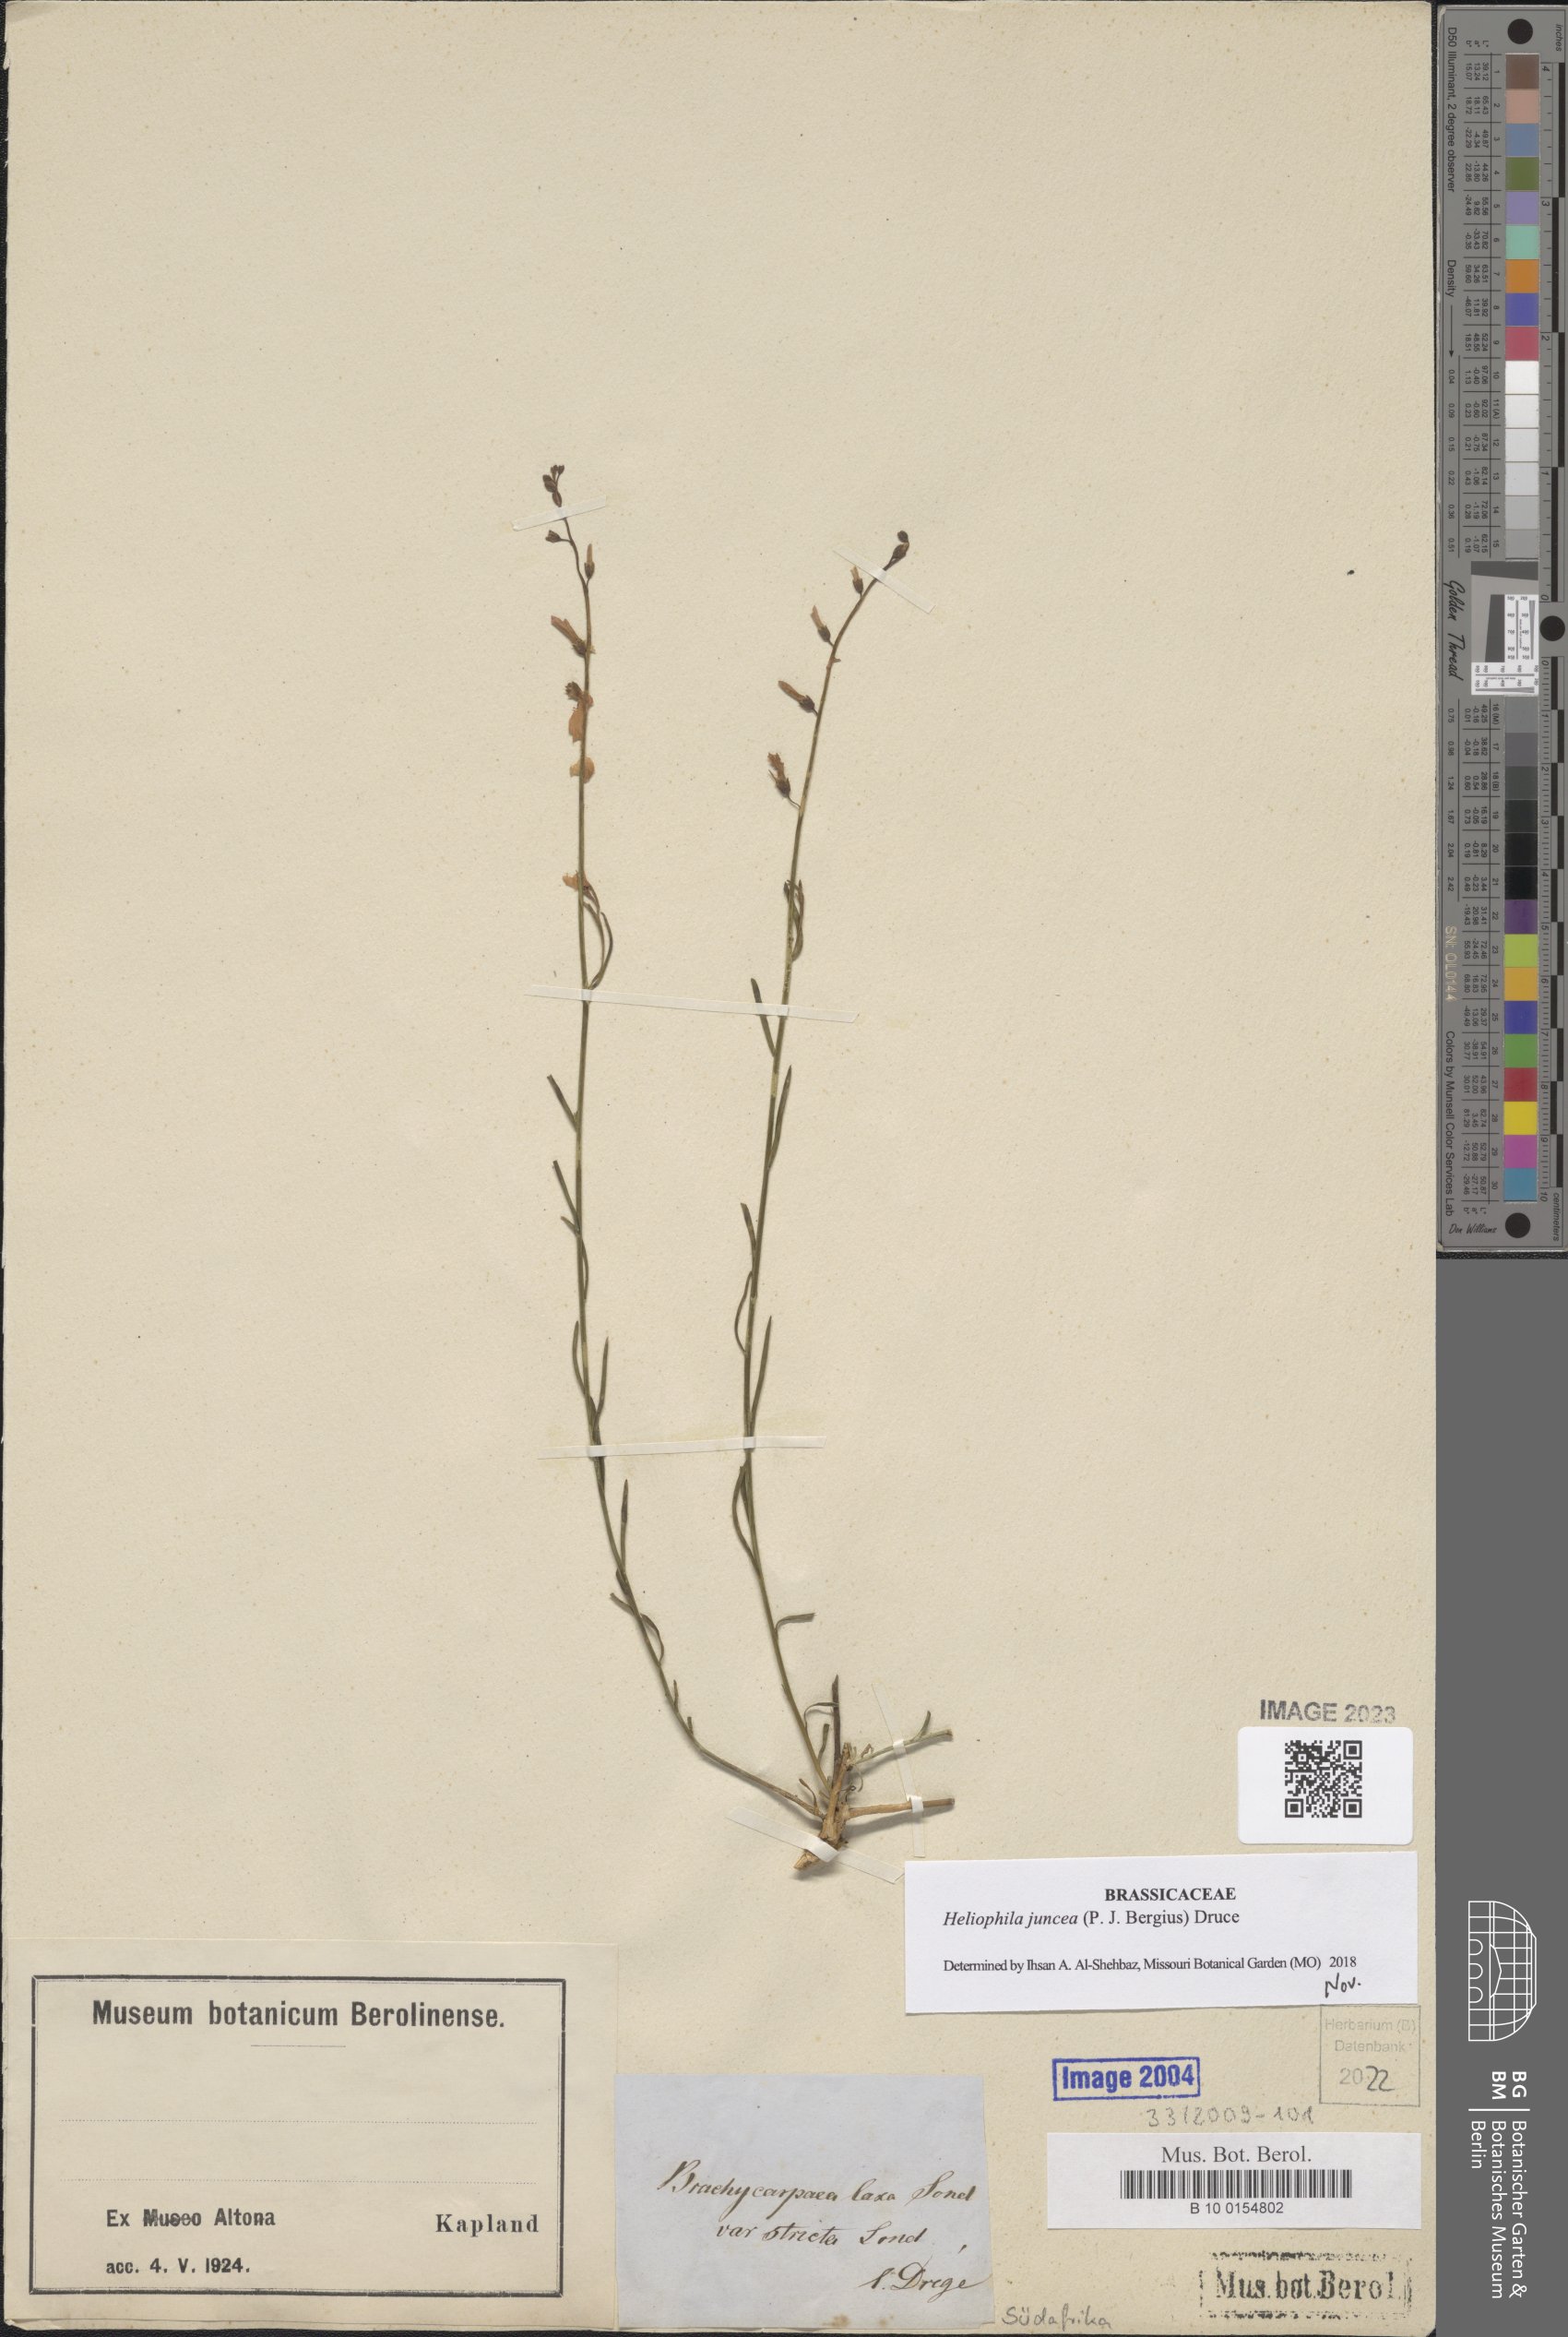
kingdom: Plantae
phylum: Tracheophyta
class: Magnoliopsida
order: Brassicales
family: Brassicaceae
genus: Heliophila
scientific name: Heliophila juncea
